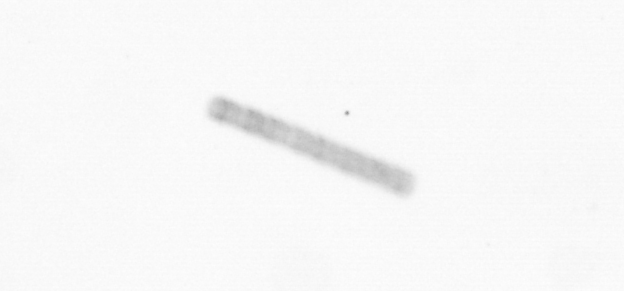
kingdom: Chromista
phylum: Ochrophyta
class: Bacillariophyceae
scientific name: Bacillariophyceae
